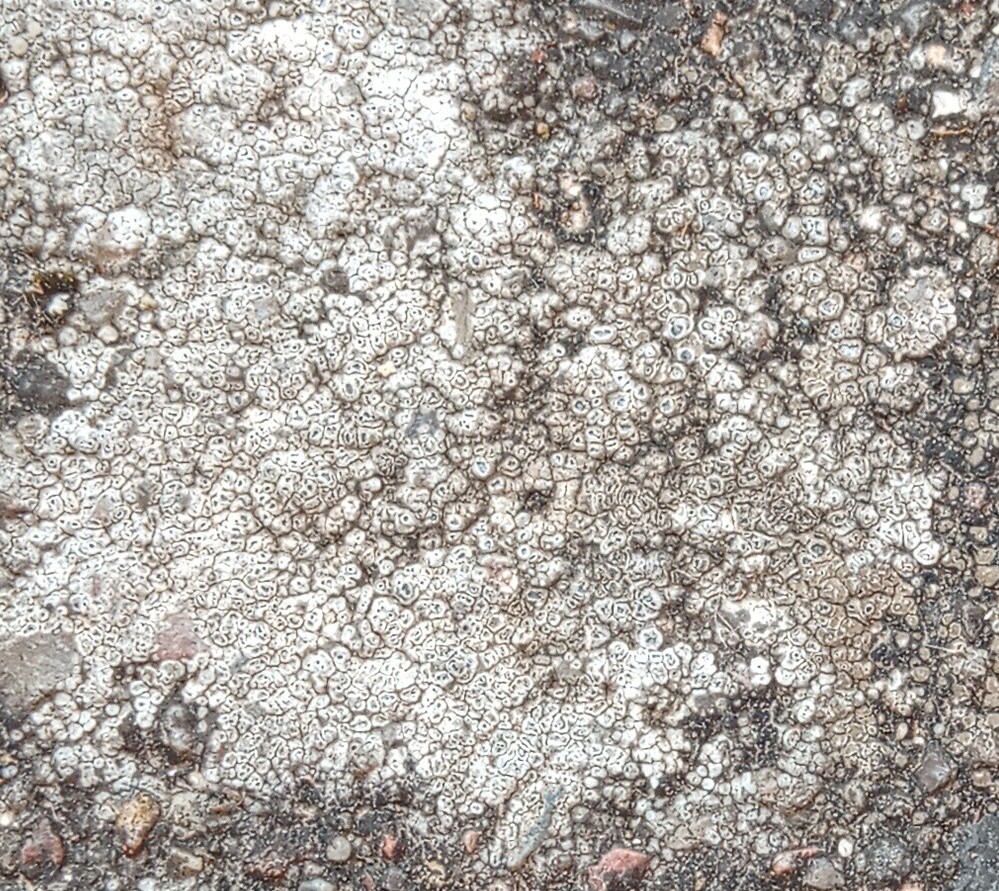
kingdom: Fungi
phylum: Ascomycota
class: Lecanoromycetes
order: Pertusariales
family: Megasporaceae
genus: Circinaria
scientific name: Circinaria contorta
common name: indviklet hulskivelav
